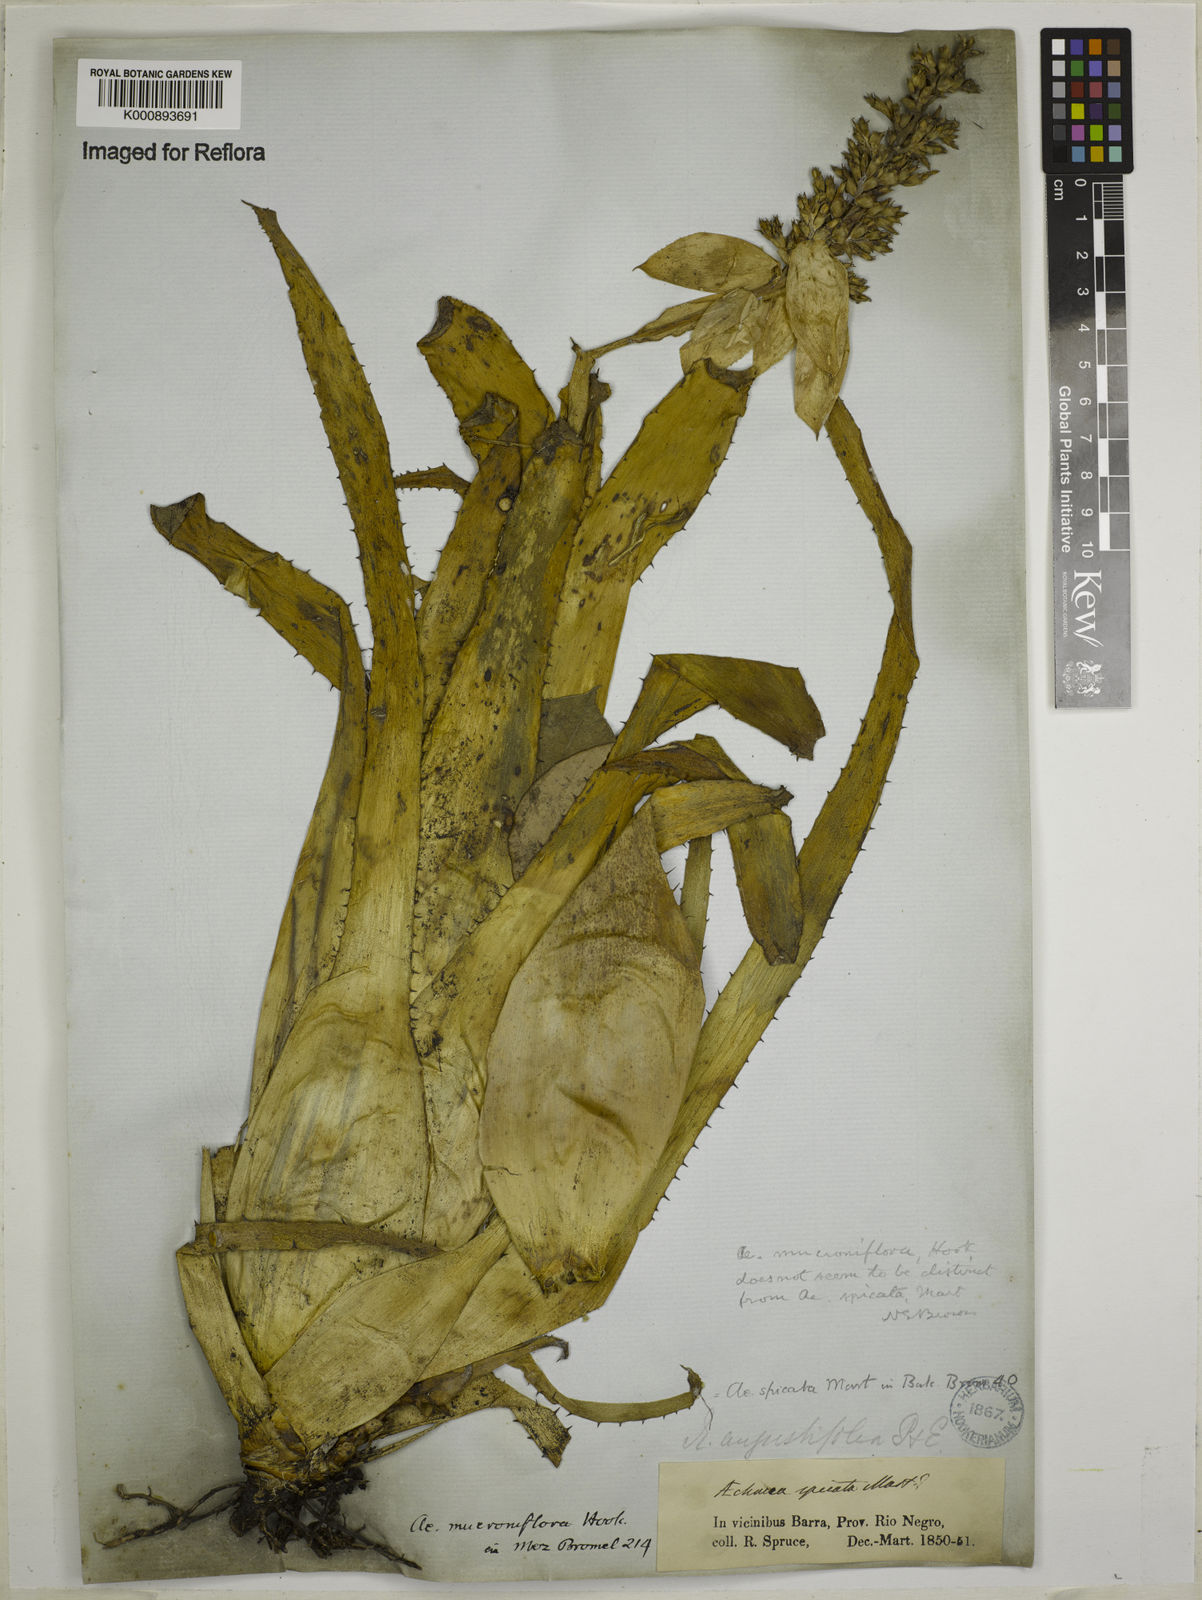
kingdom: Plantae
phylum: Tracheophyta
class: Liliopsida
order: Poales
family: Bromeliaceae
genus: Aechmea
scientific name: Aechmea mertensii
